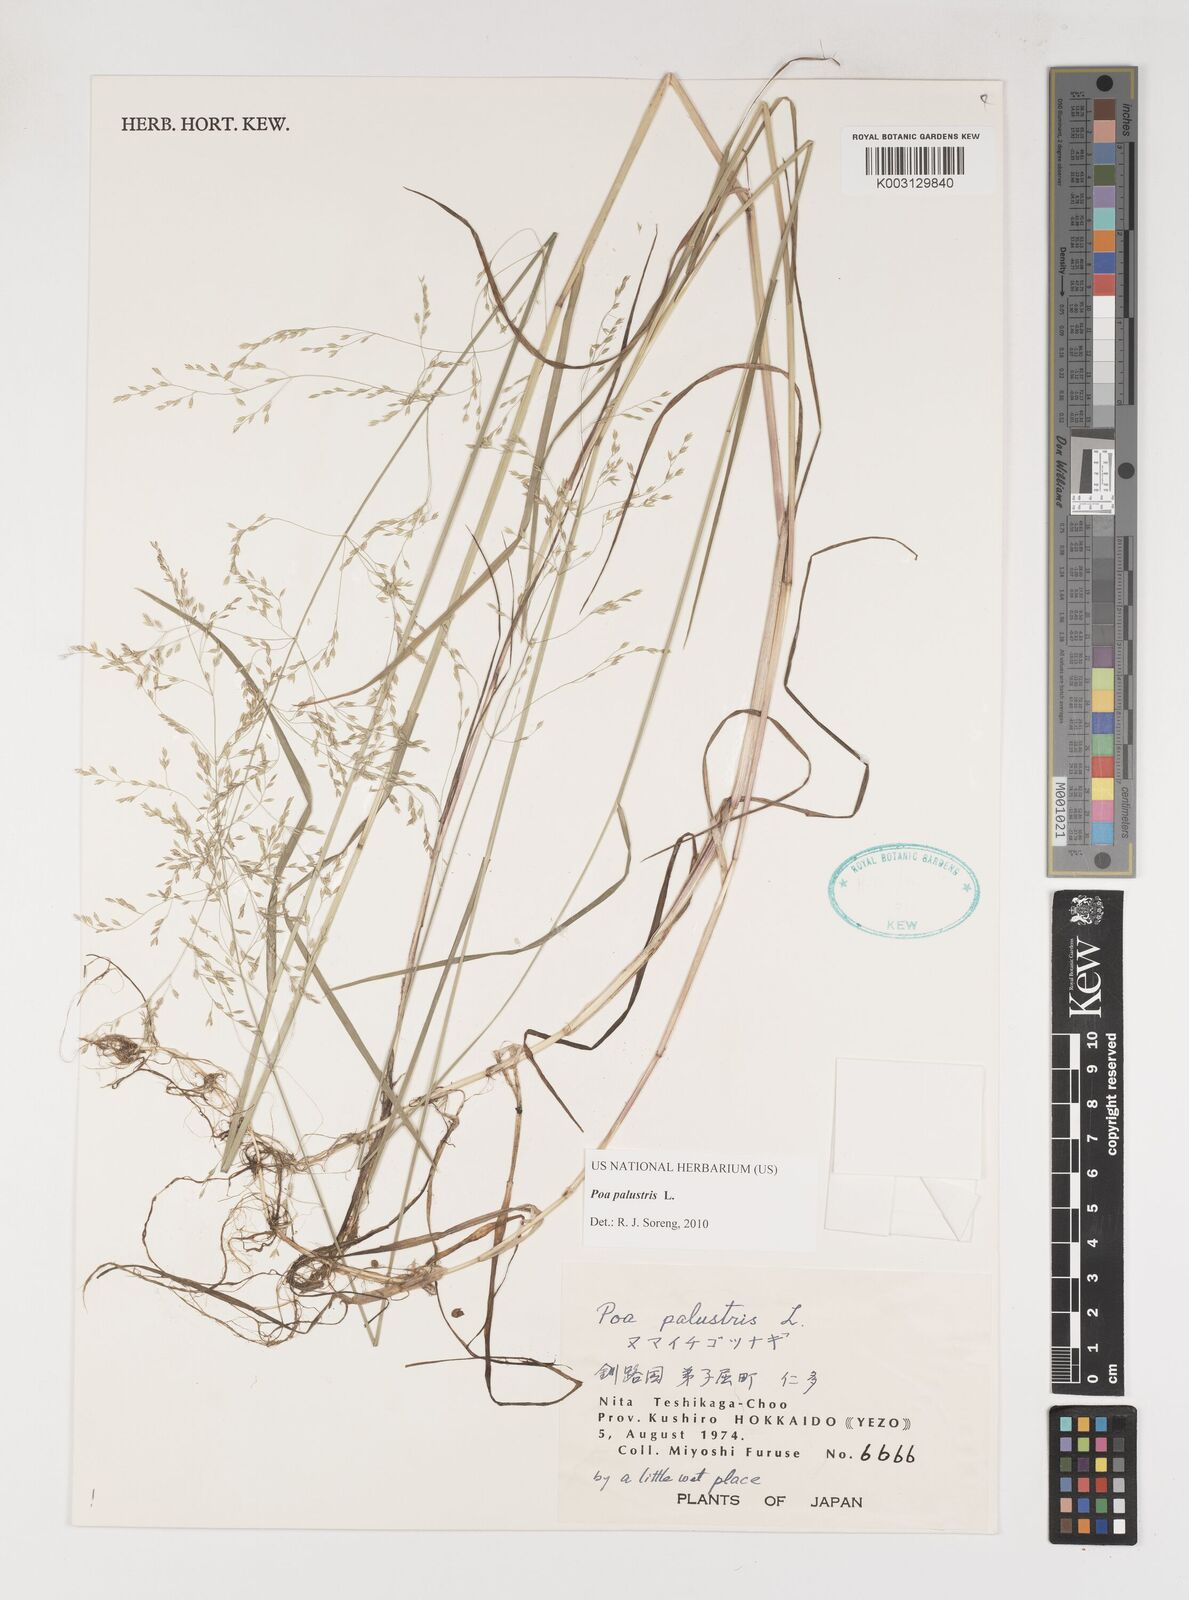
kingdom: Plantae
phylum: Tracheophyta
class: Liliopsida
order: Poales
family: Poaceae
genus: Poa
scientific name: Poa palustris
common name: Swamp meadow-grass
